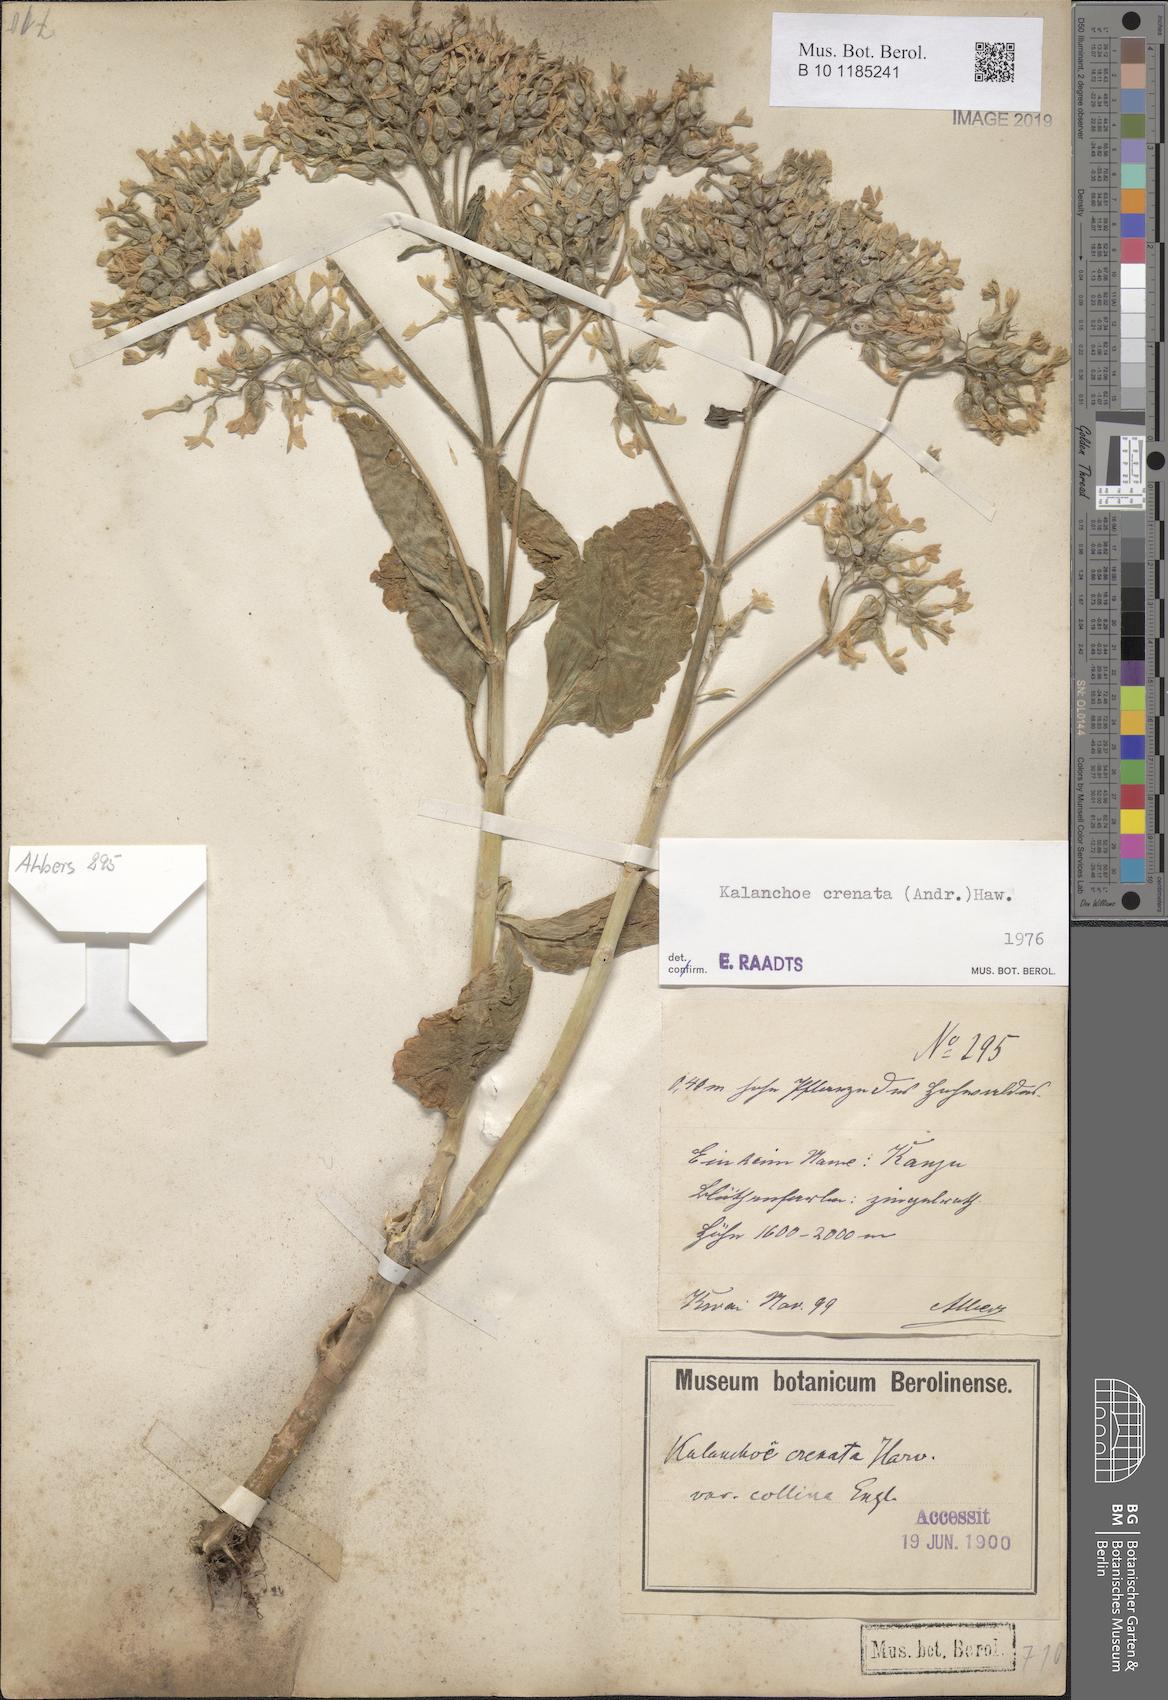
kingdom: Plantae
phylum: Tracheophyta
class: Magnoliopsida
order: Saxifragales
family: Crassulaceae
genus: Kalanchoe
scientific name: Kalanchoe crenata
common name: Neverdie
